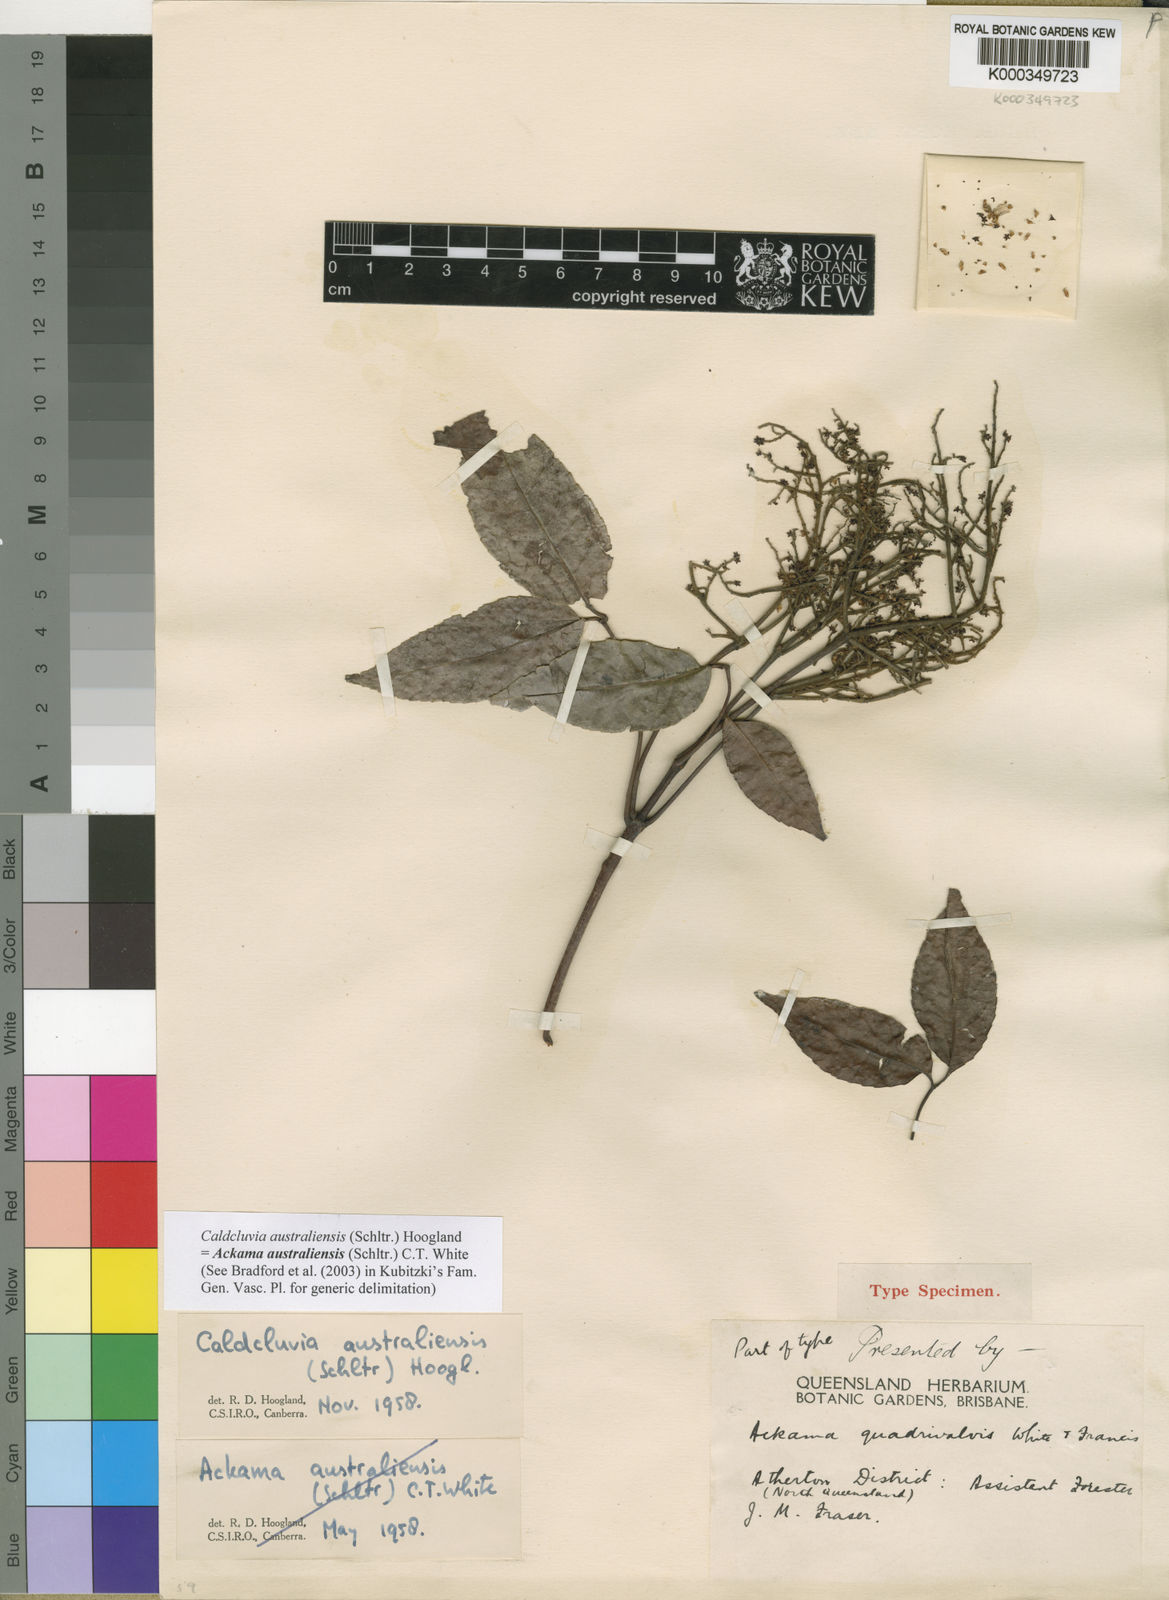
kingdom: Plantae
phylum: Tracheophyta
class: Magnoliopsida
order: Oxalidales
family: Cunoniaceae
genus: Ackama
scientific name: Ackama australiensis
